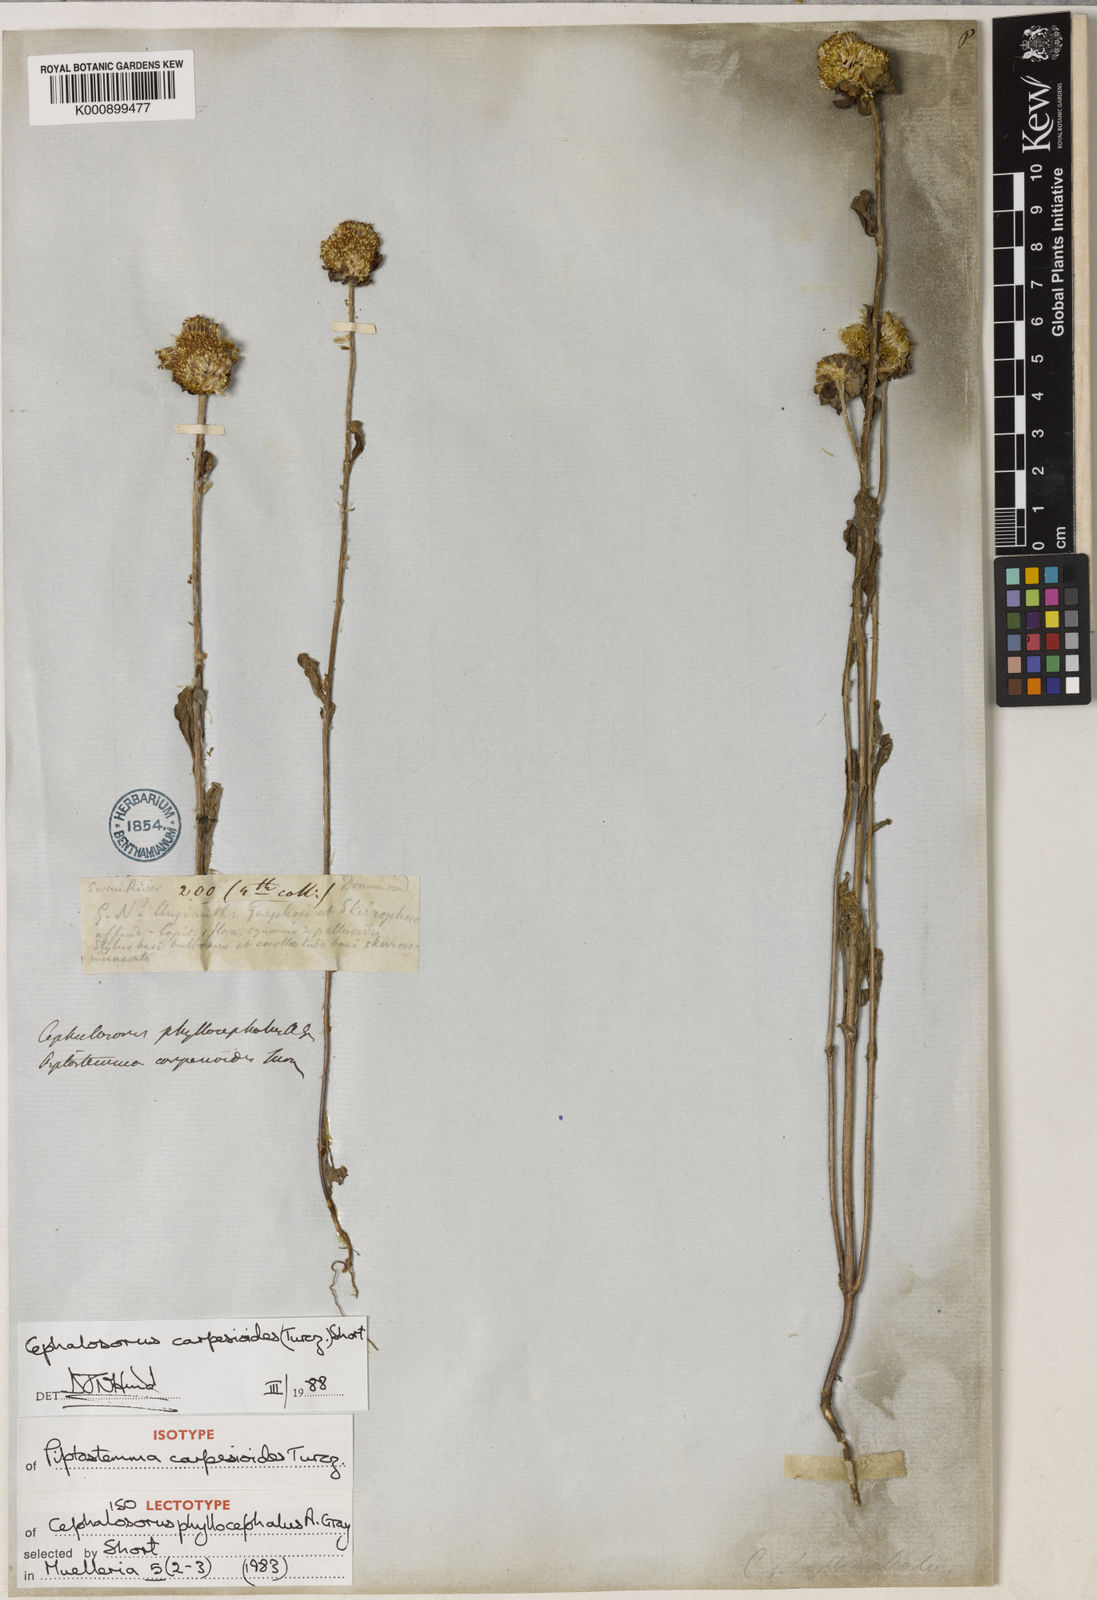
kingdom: Plantae
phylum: Tracheophyta
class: Magnoliopsida
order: Asterales
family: Asteraceae
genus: Cephalosorus
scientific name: Cephalosorus carpesioides
